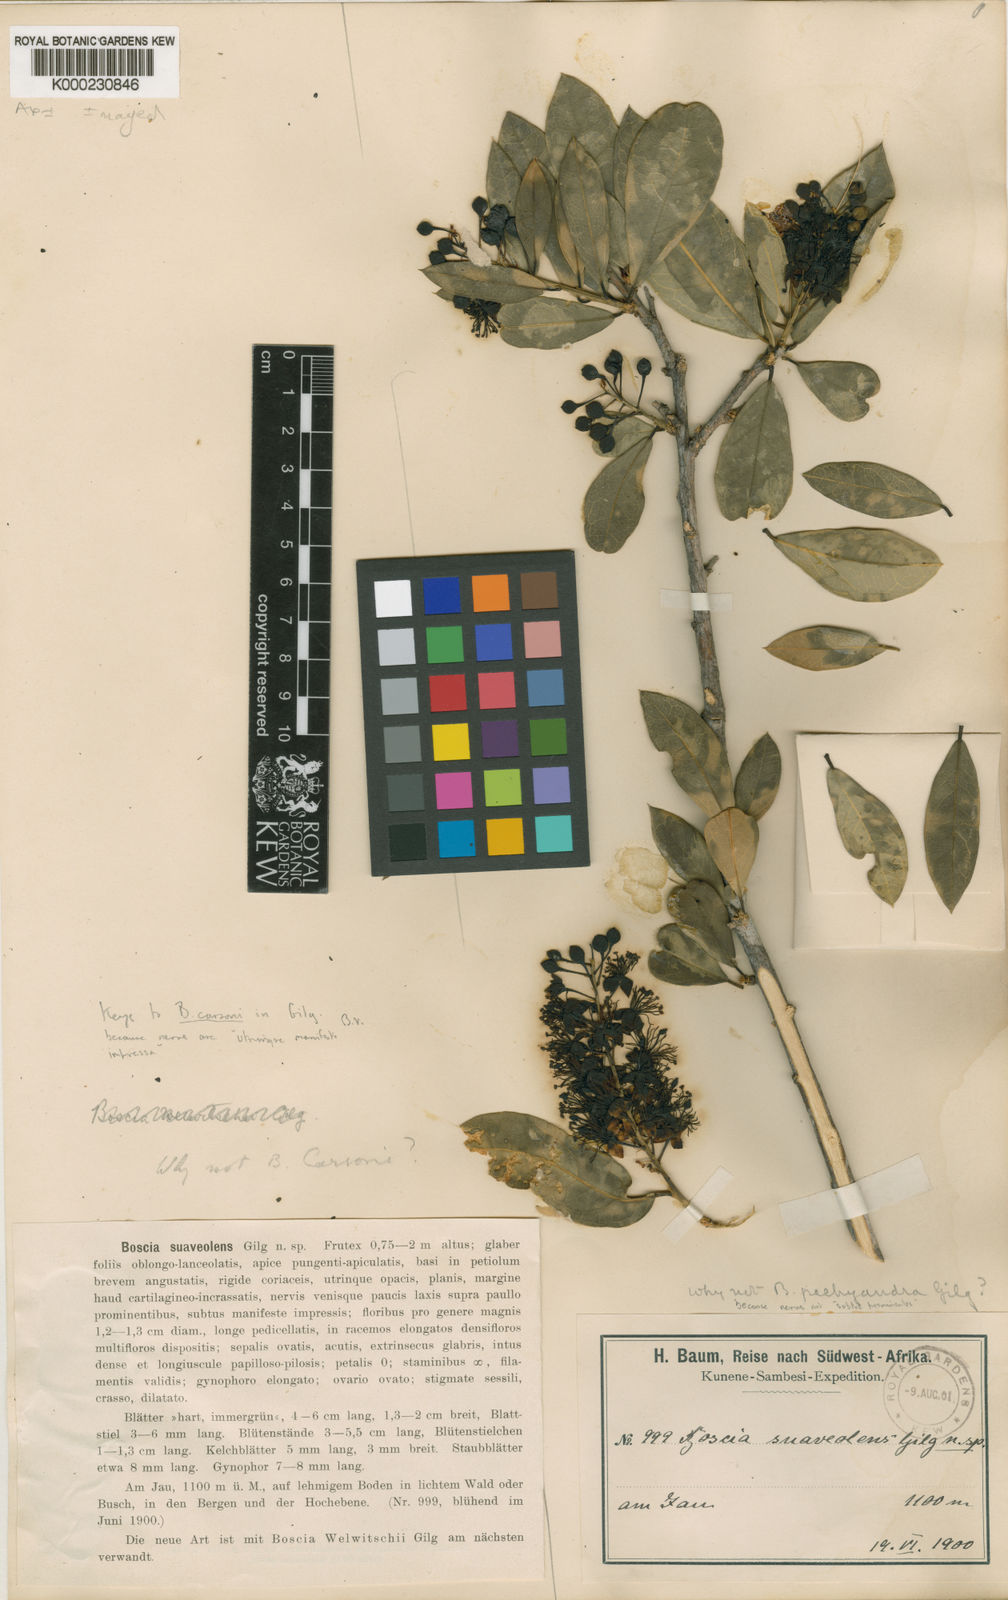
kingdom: Plantae
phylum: Tracheophyta
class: Magnoliopsida
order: Brassicales
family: Capparaceae
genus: Boscia
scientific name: Boscia welwitschii
